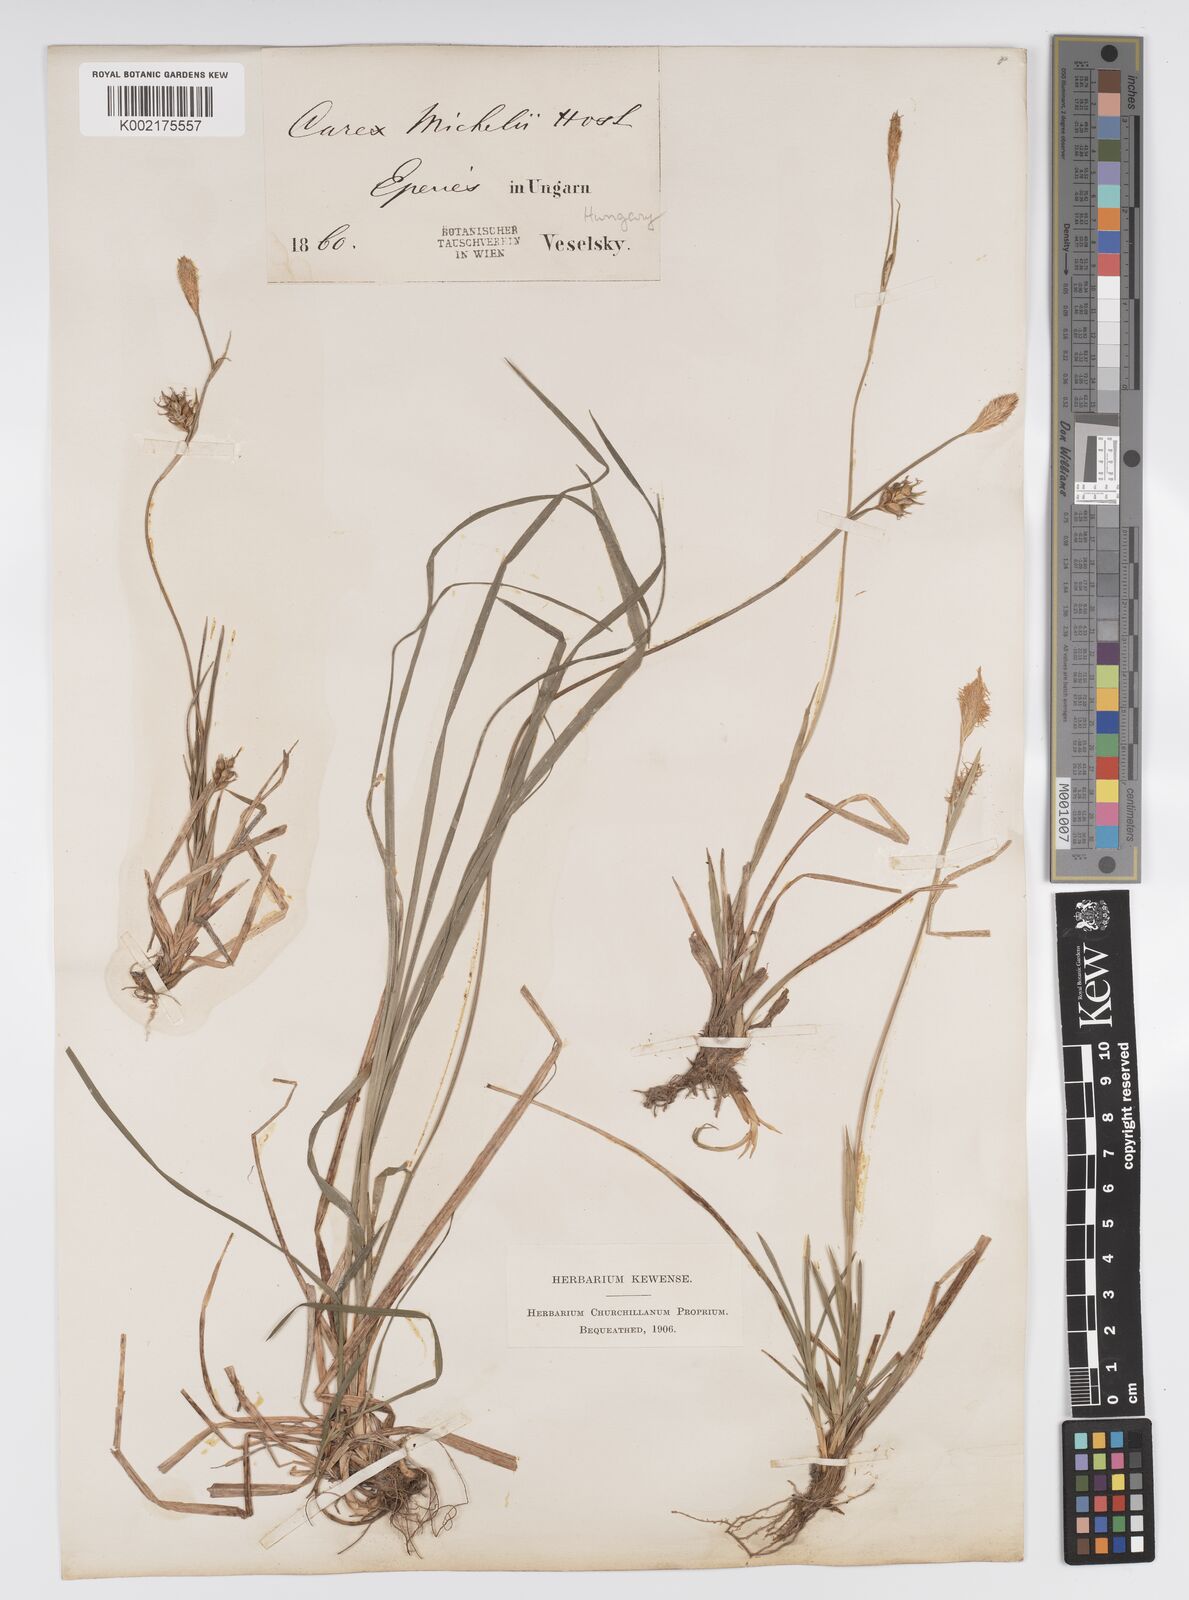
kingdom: Plantae
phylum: Tracheophyta
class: Liliopsida
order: Poales
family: Cyperaceae
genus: Carex
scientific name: Carex michelii
